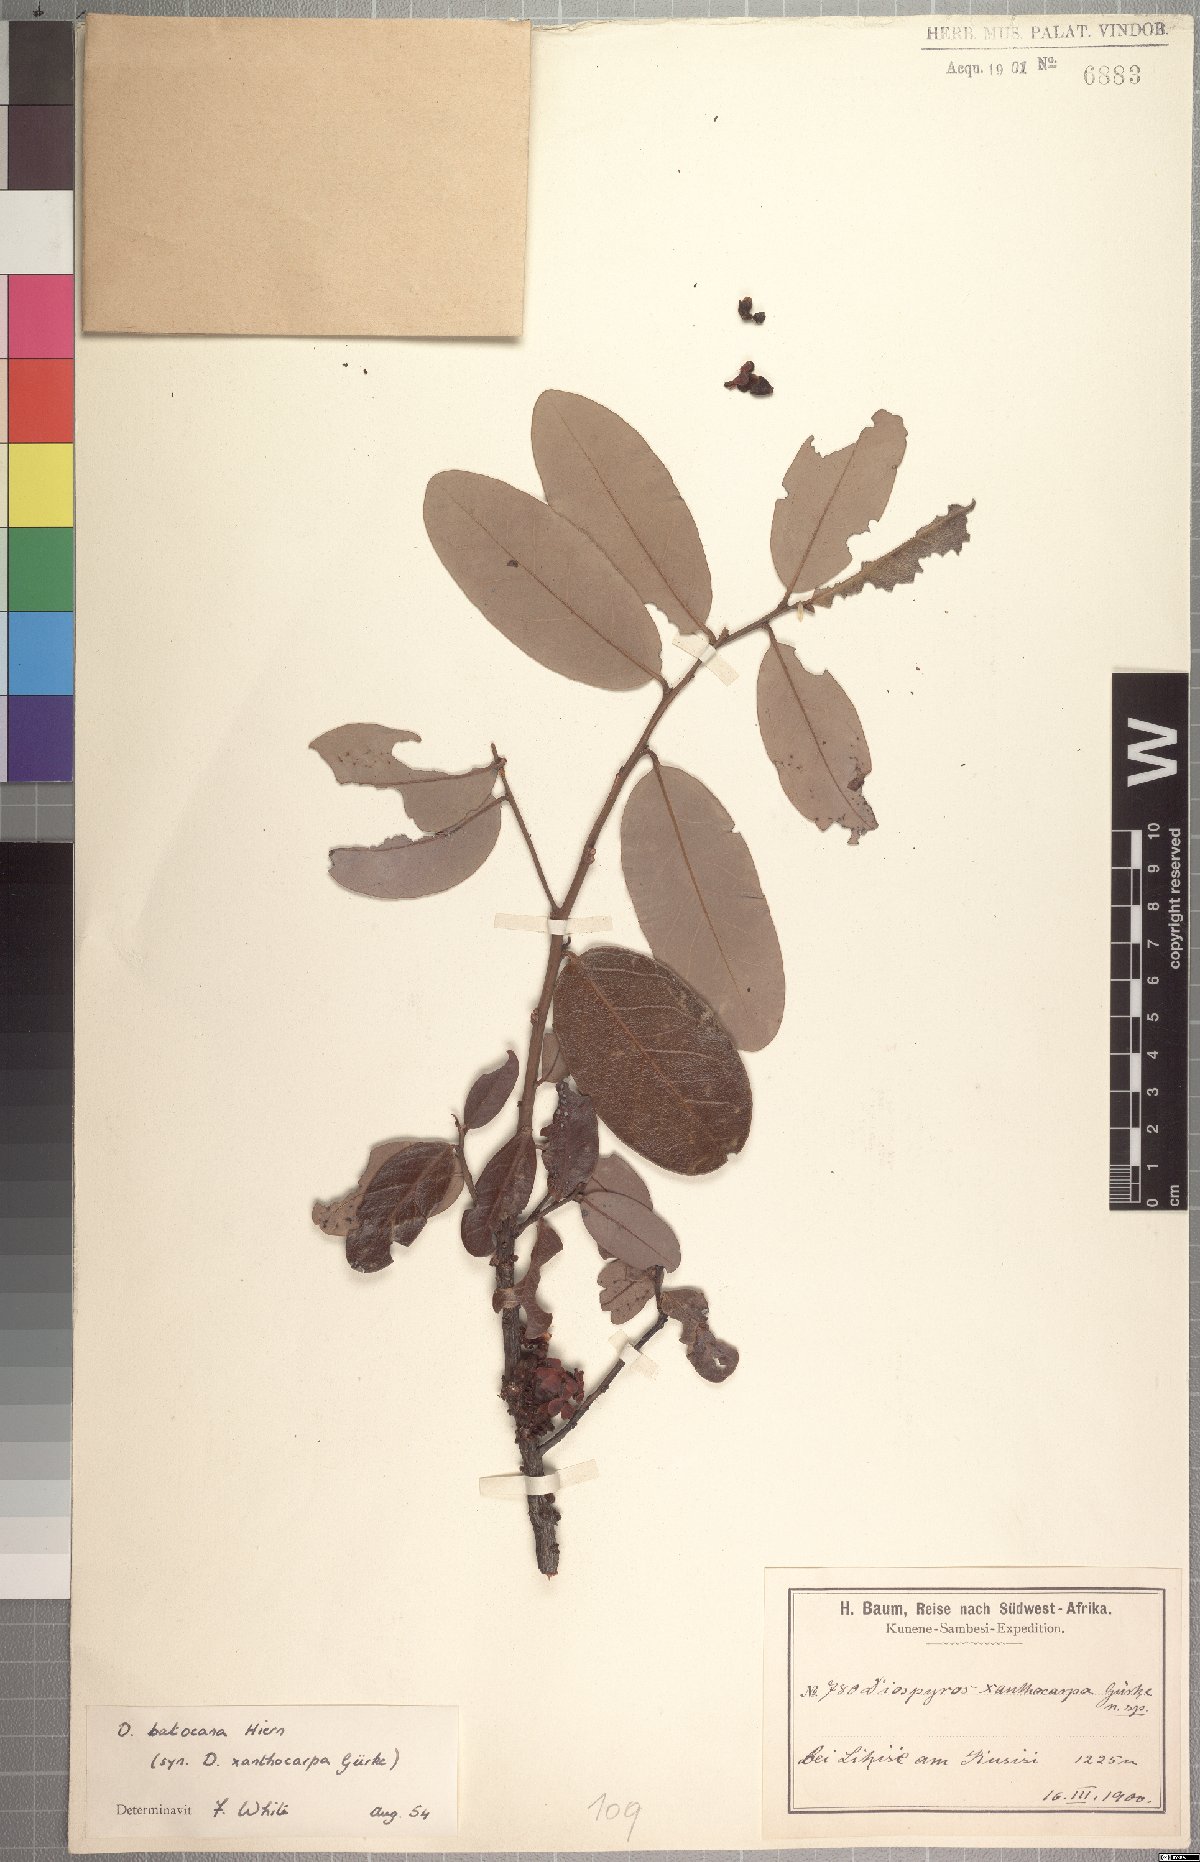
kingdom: Plantae
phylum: Tracheophyta
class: Magnoliopsida
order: Ericales
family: Ebenaceae
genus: Diospyros
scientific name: Diospyros batocana
